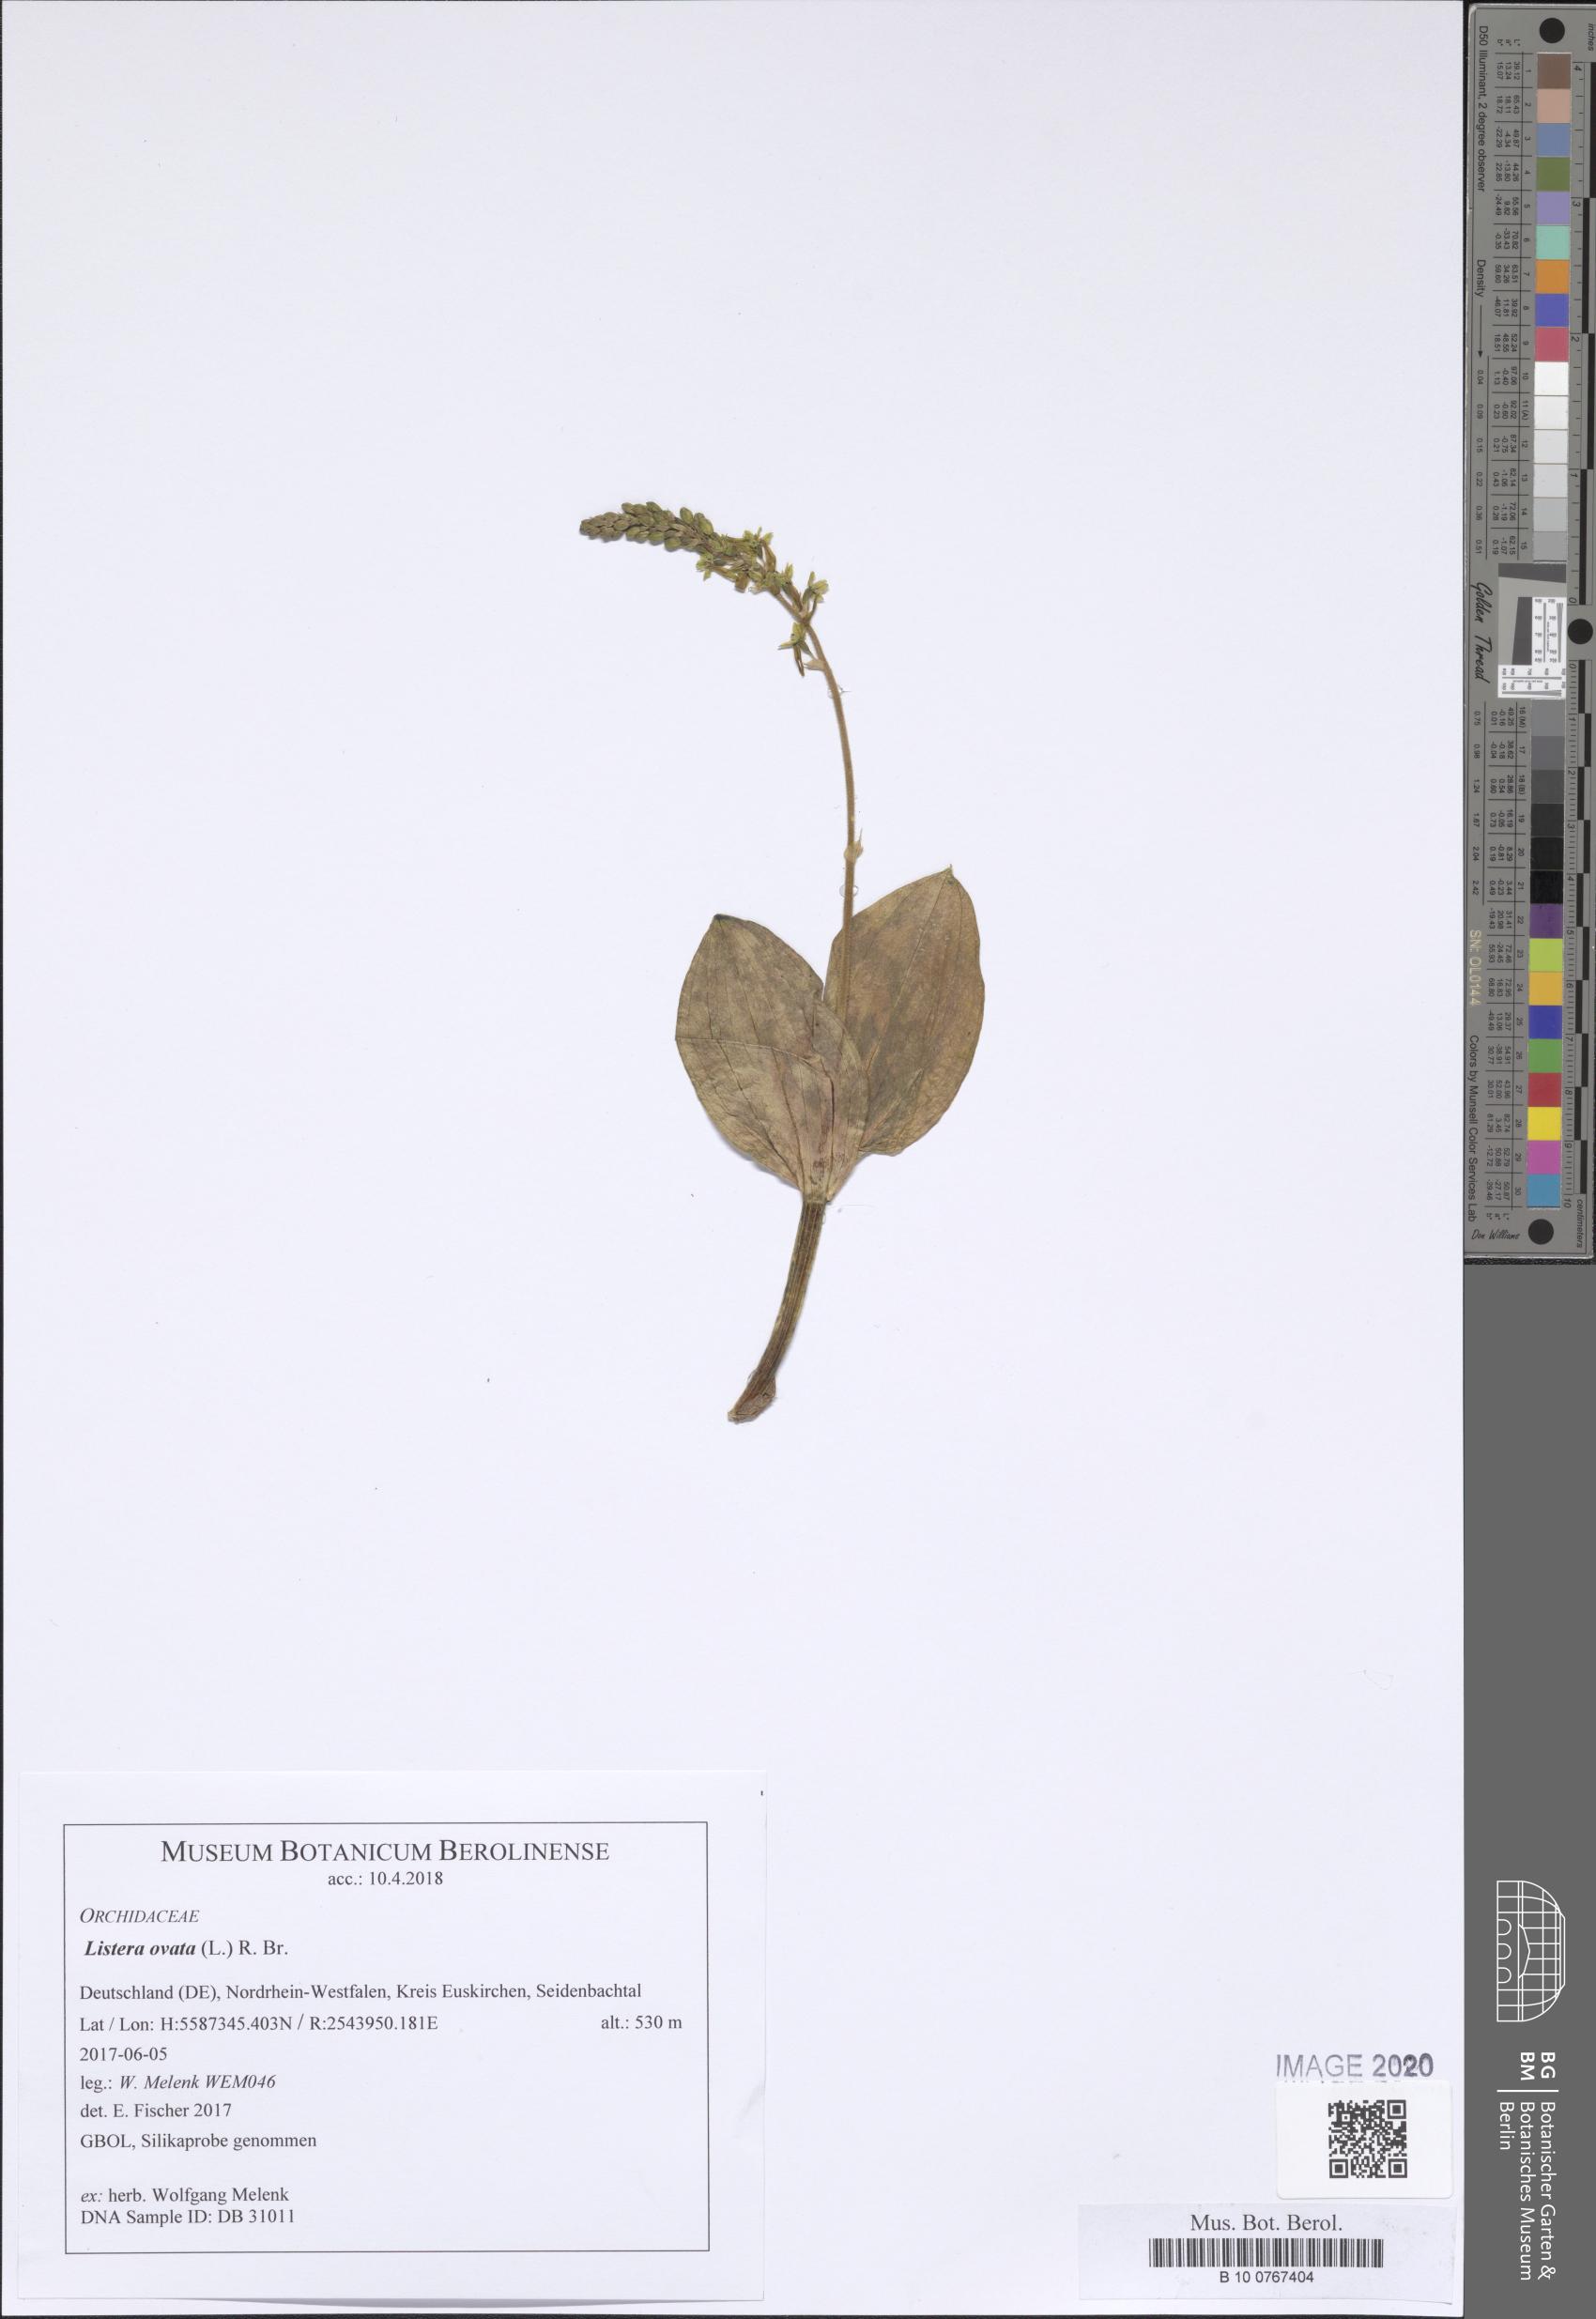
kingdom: Plantae
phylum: Tracheophyta
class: Liliopsida
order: Asparagales
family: Orchidaceae
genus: Neottia
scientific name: Neottia ovata
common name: Common twayblade
